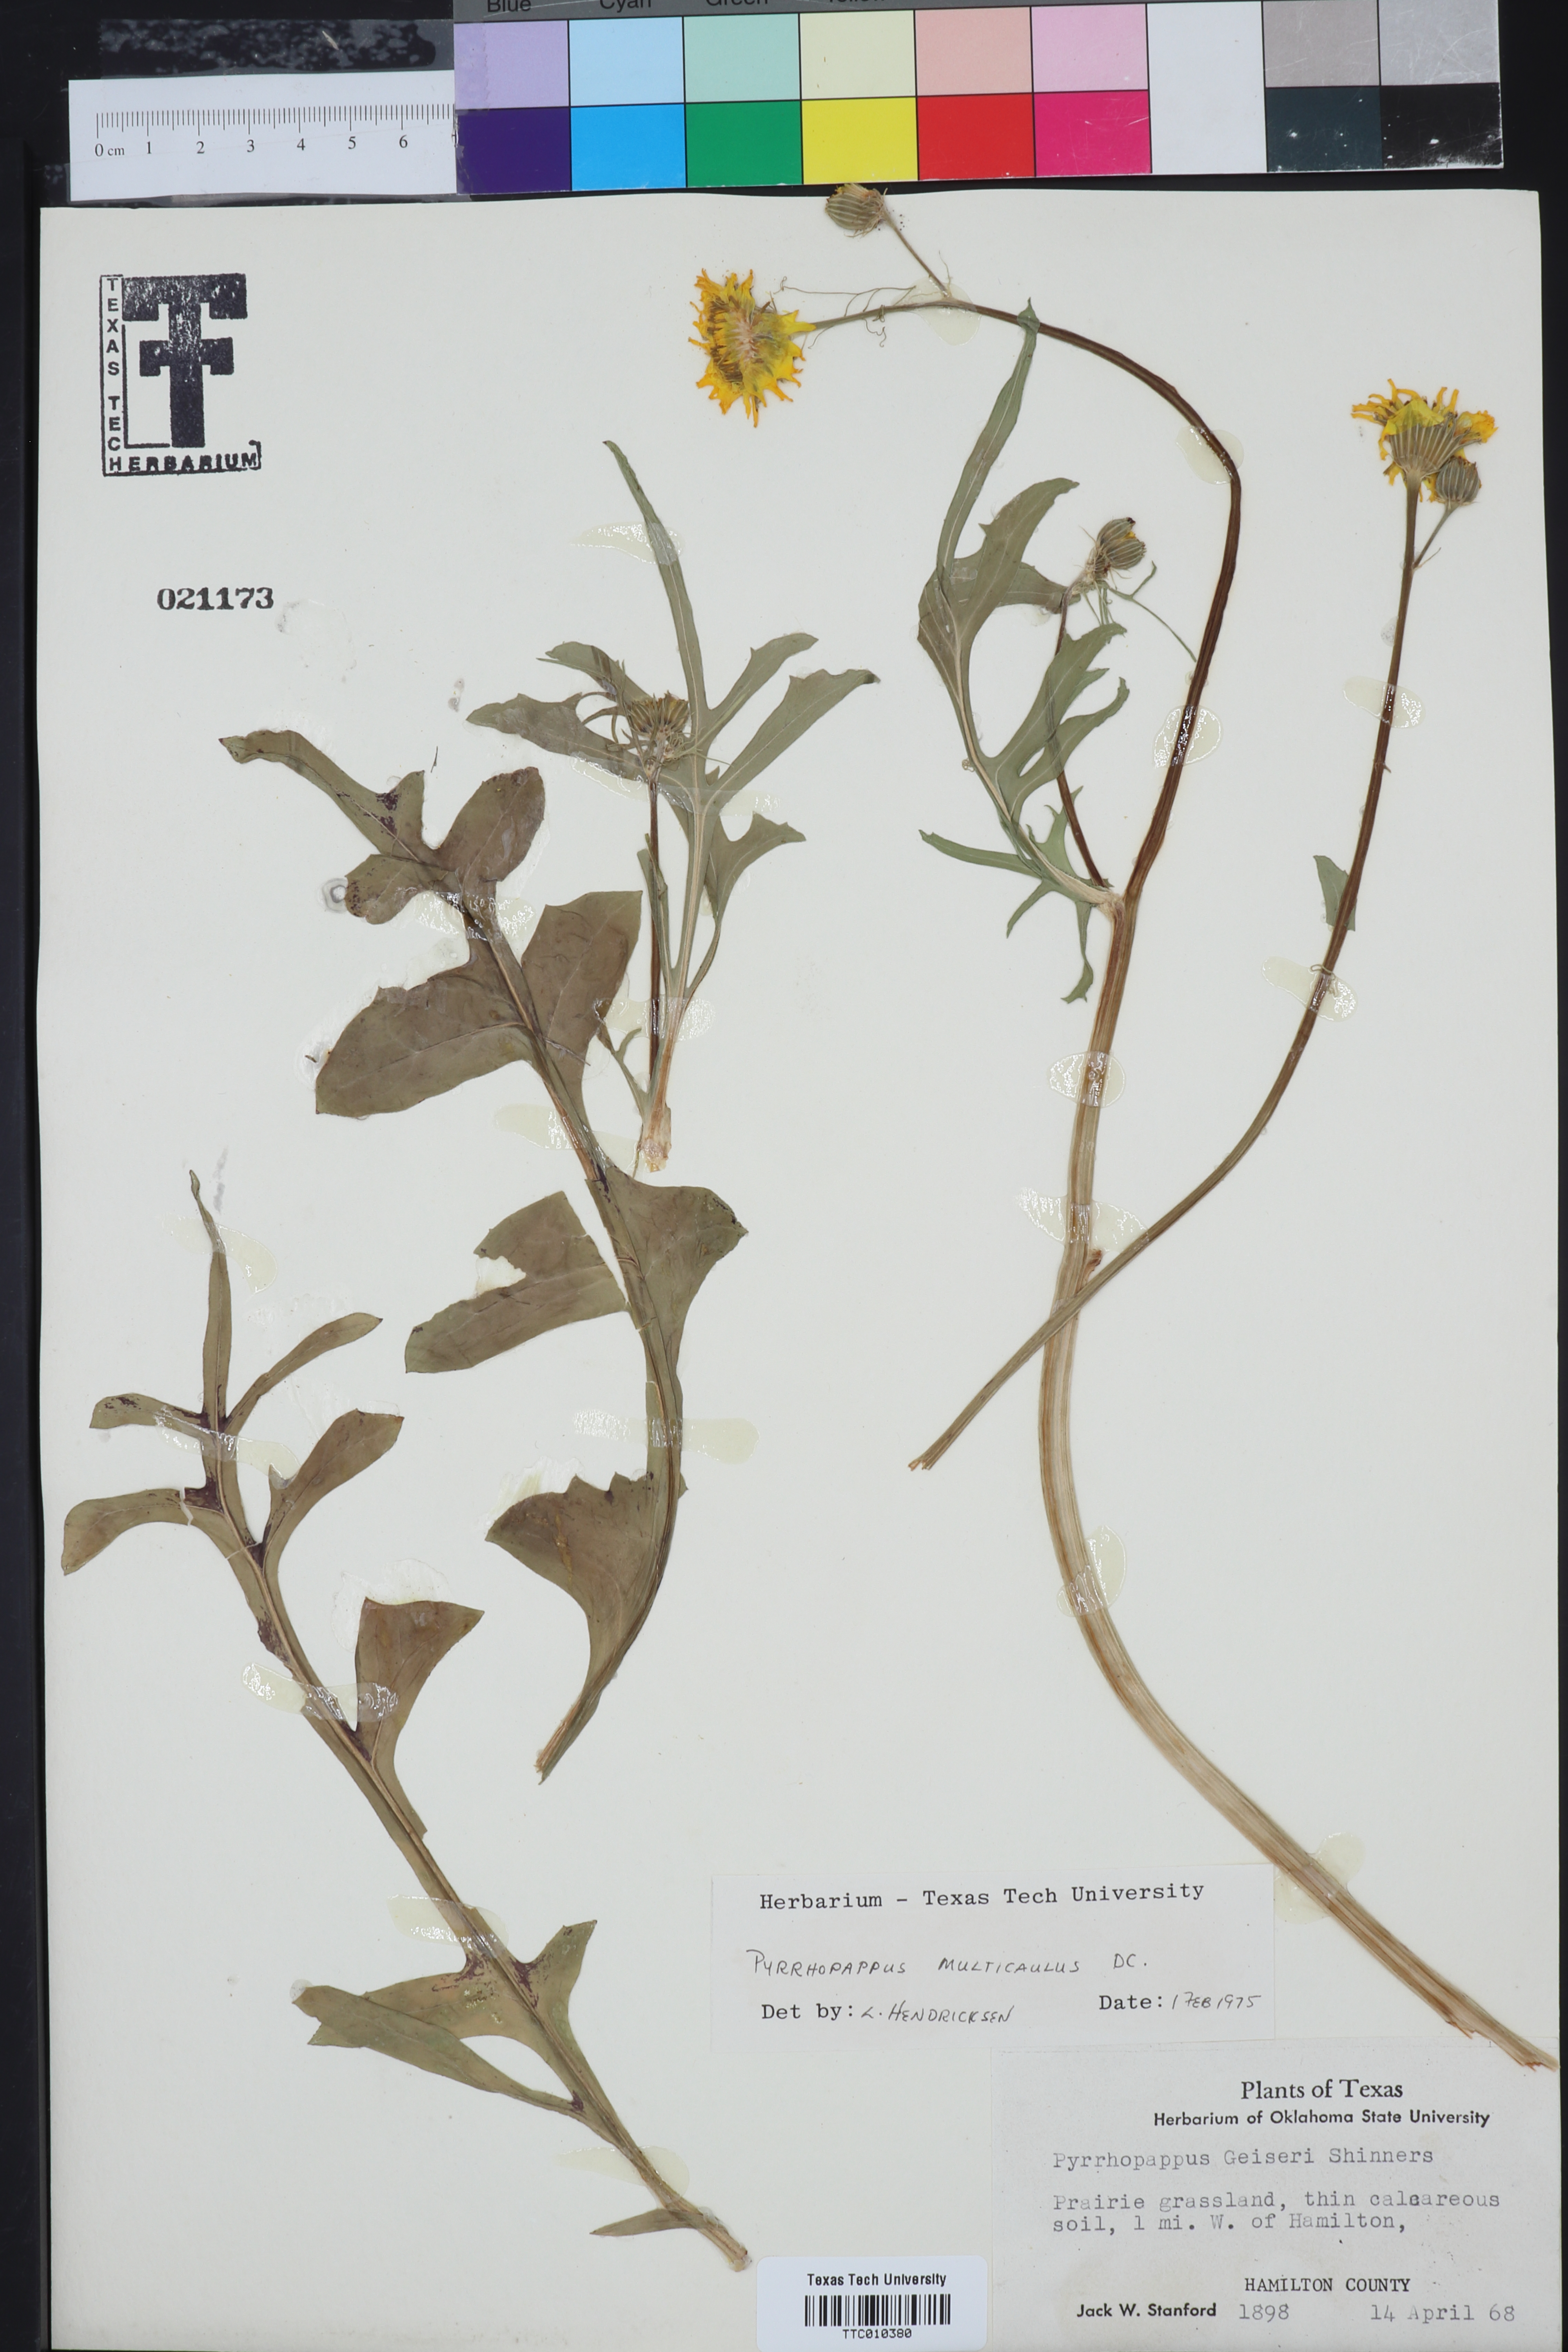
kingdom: Plantae
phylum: Tracheophyta
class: Magnoliopsida
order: Asterales
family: Asteraceae
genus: Pyrrhopappus
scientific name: Pyrrhopappus pauciflorus
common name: Texas false dandelion
